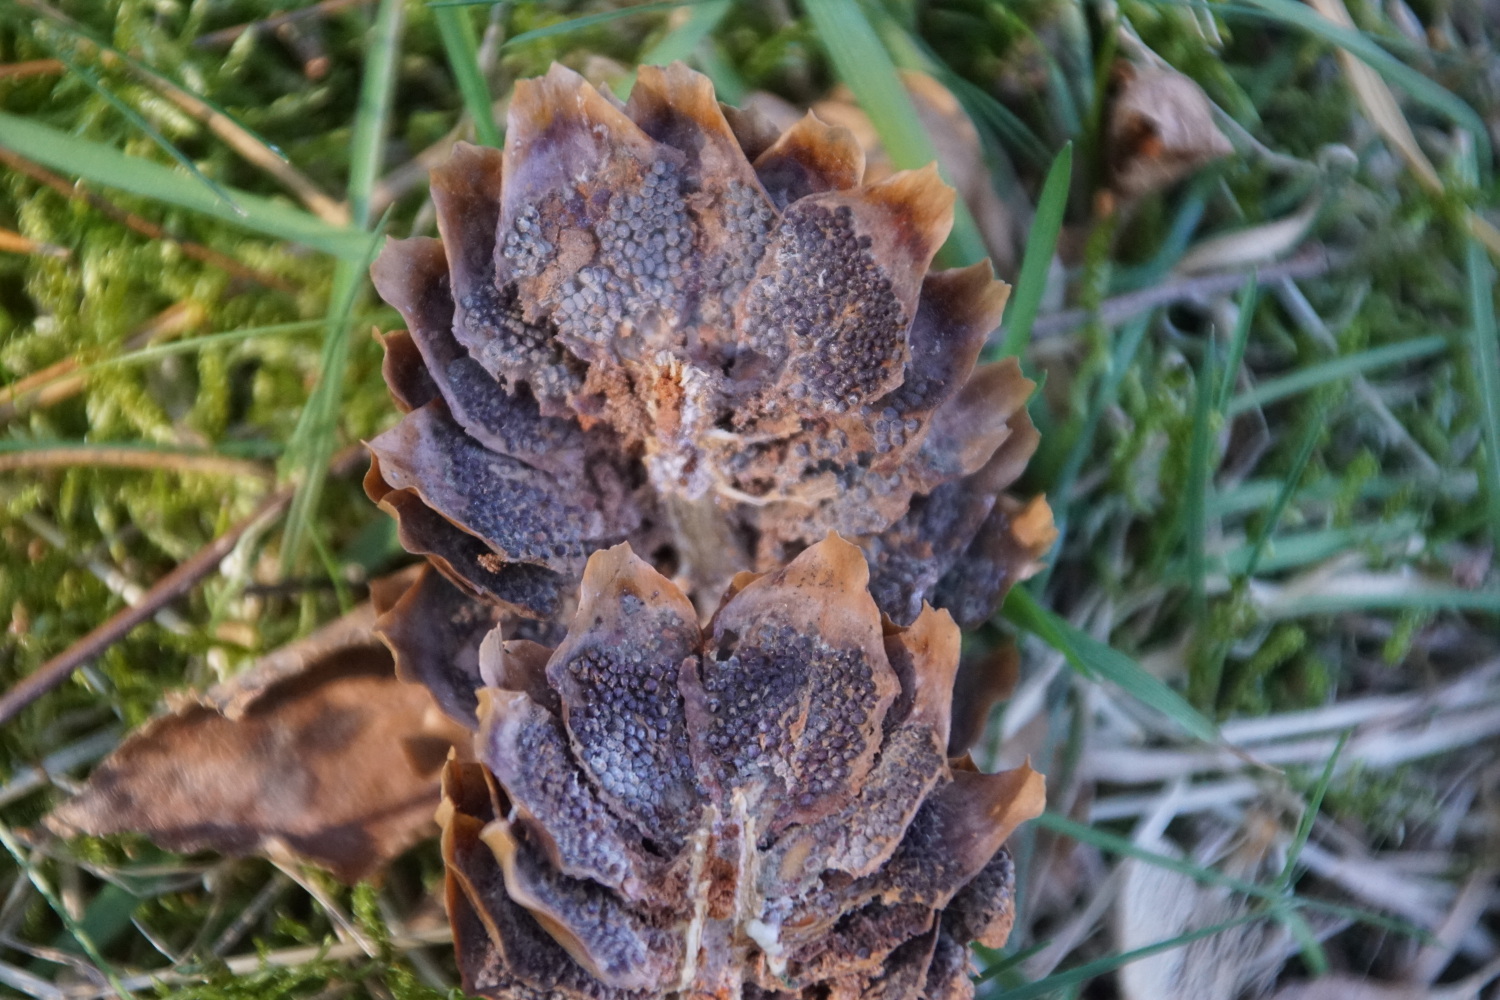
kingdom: Fungi
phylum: Basidiomycota
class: Pucciniomycetes
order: Pucciniales
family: Pucciniastraceae
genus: Thekopsora
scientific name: Thekopsora areolata
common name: grankogle-nålerust
